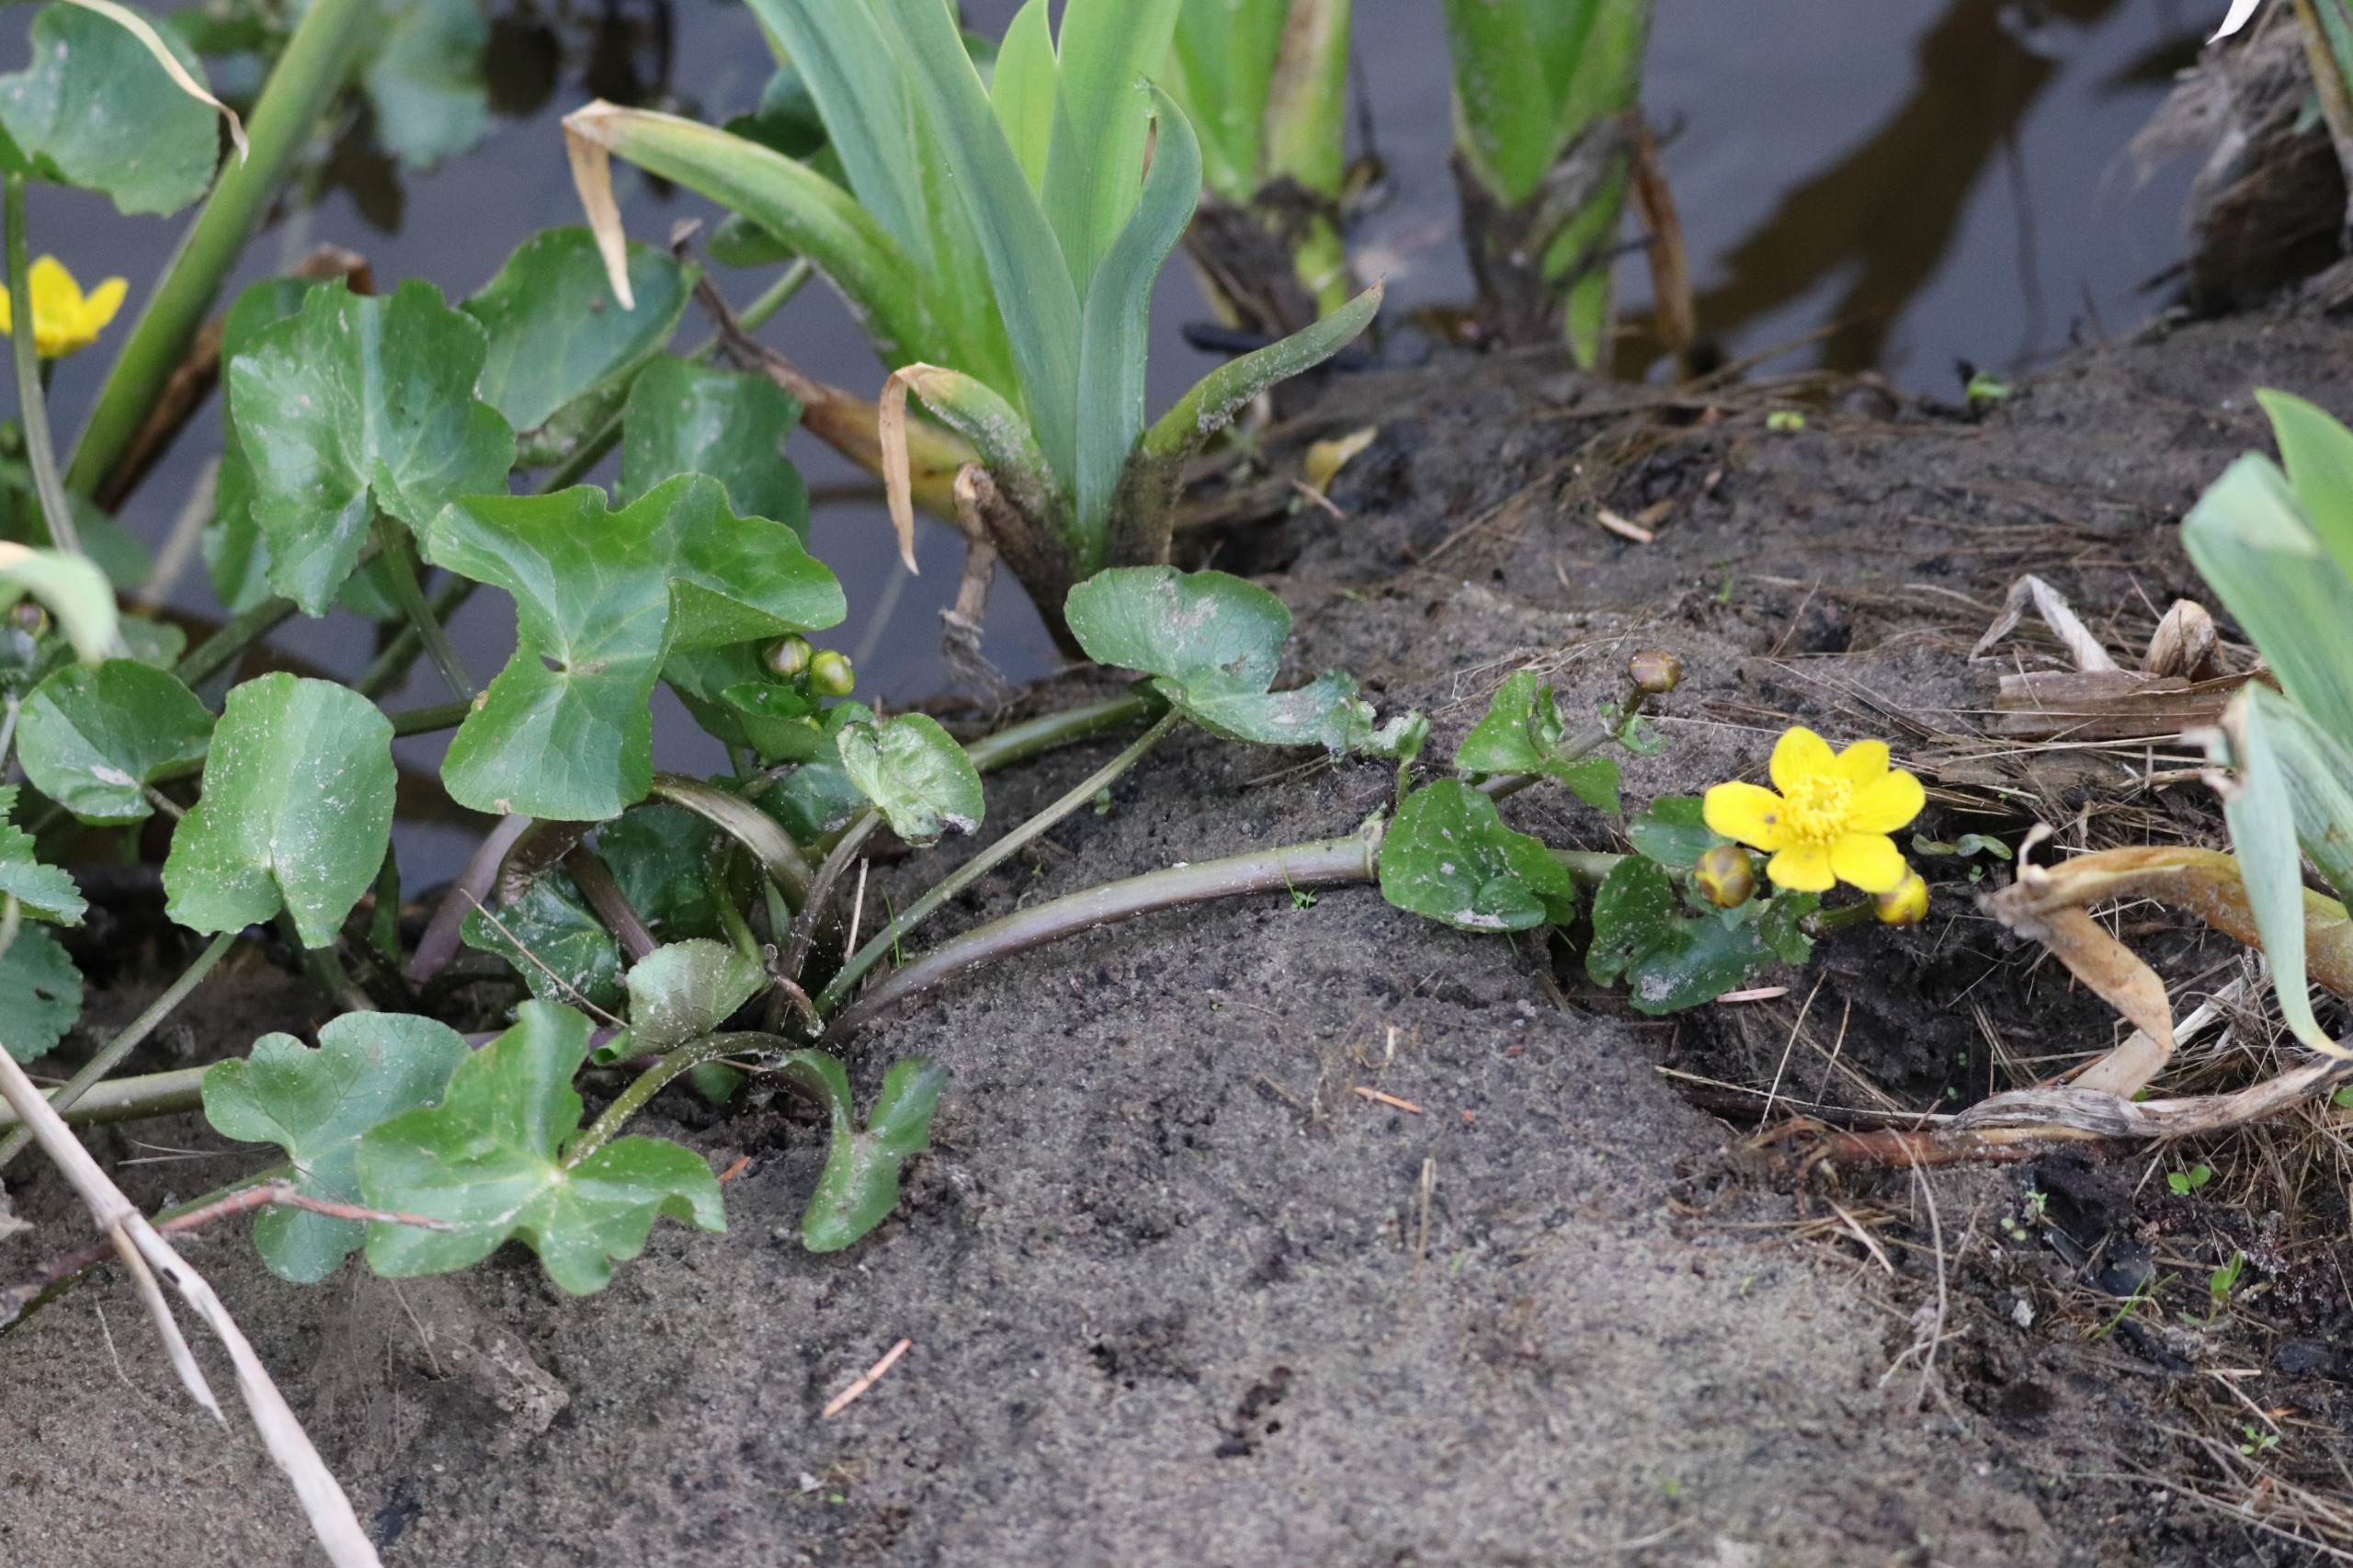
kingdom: Plantae
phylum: Tracheophyta
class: Magnoliopsida
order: Ranunculales
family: Ranunculaceae
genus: Caltha
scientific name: Caltha palustris
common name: Eng-kabbeleje
